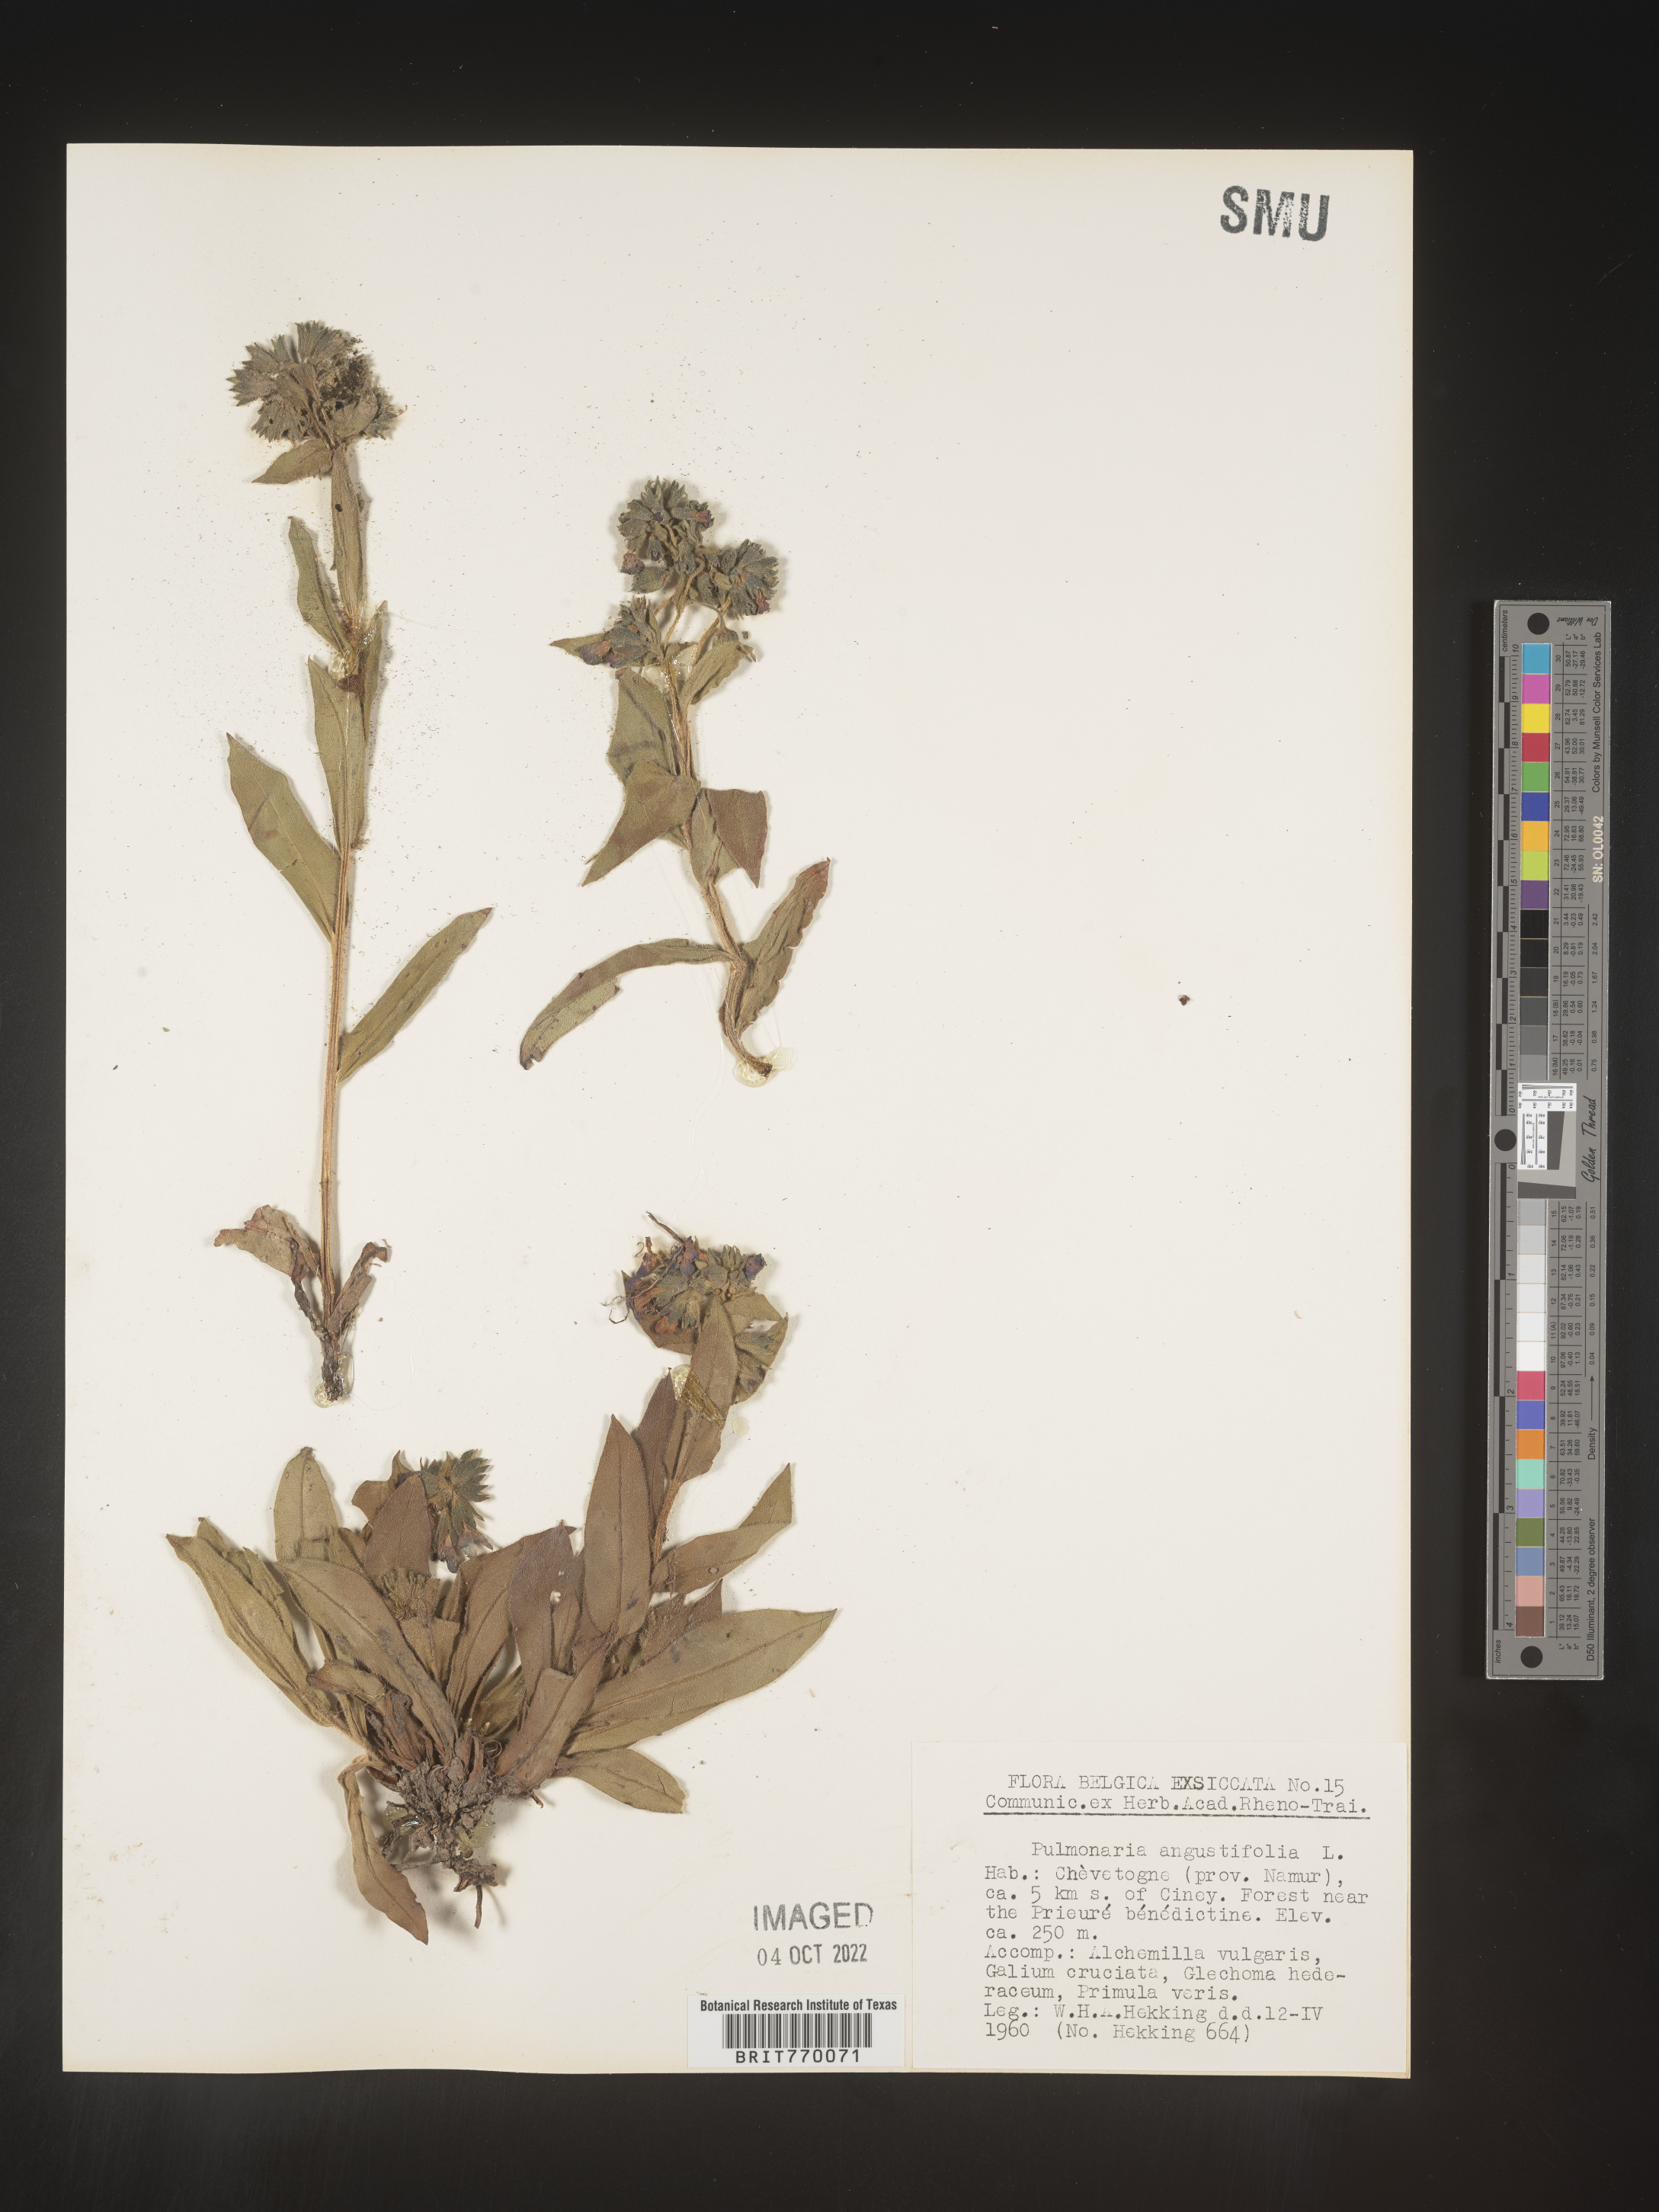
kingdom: Plantae
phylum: Tracheophyta
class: Magnoliopsida
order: Boraginales
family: Boraginaceae
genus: Pulmonaria
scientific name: Pulmonaria
